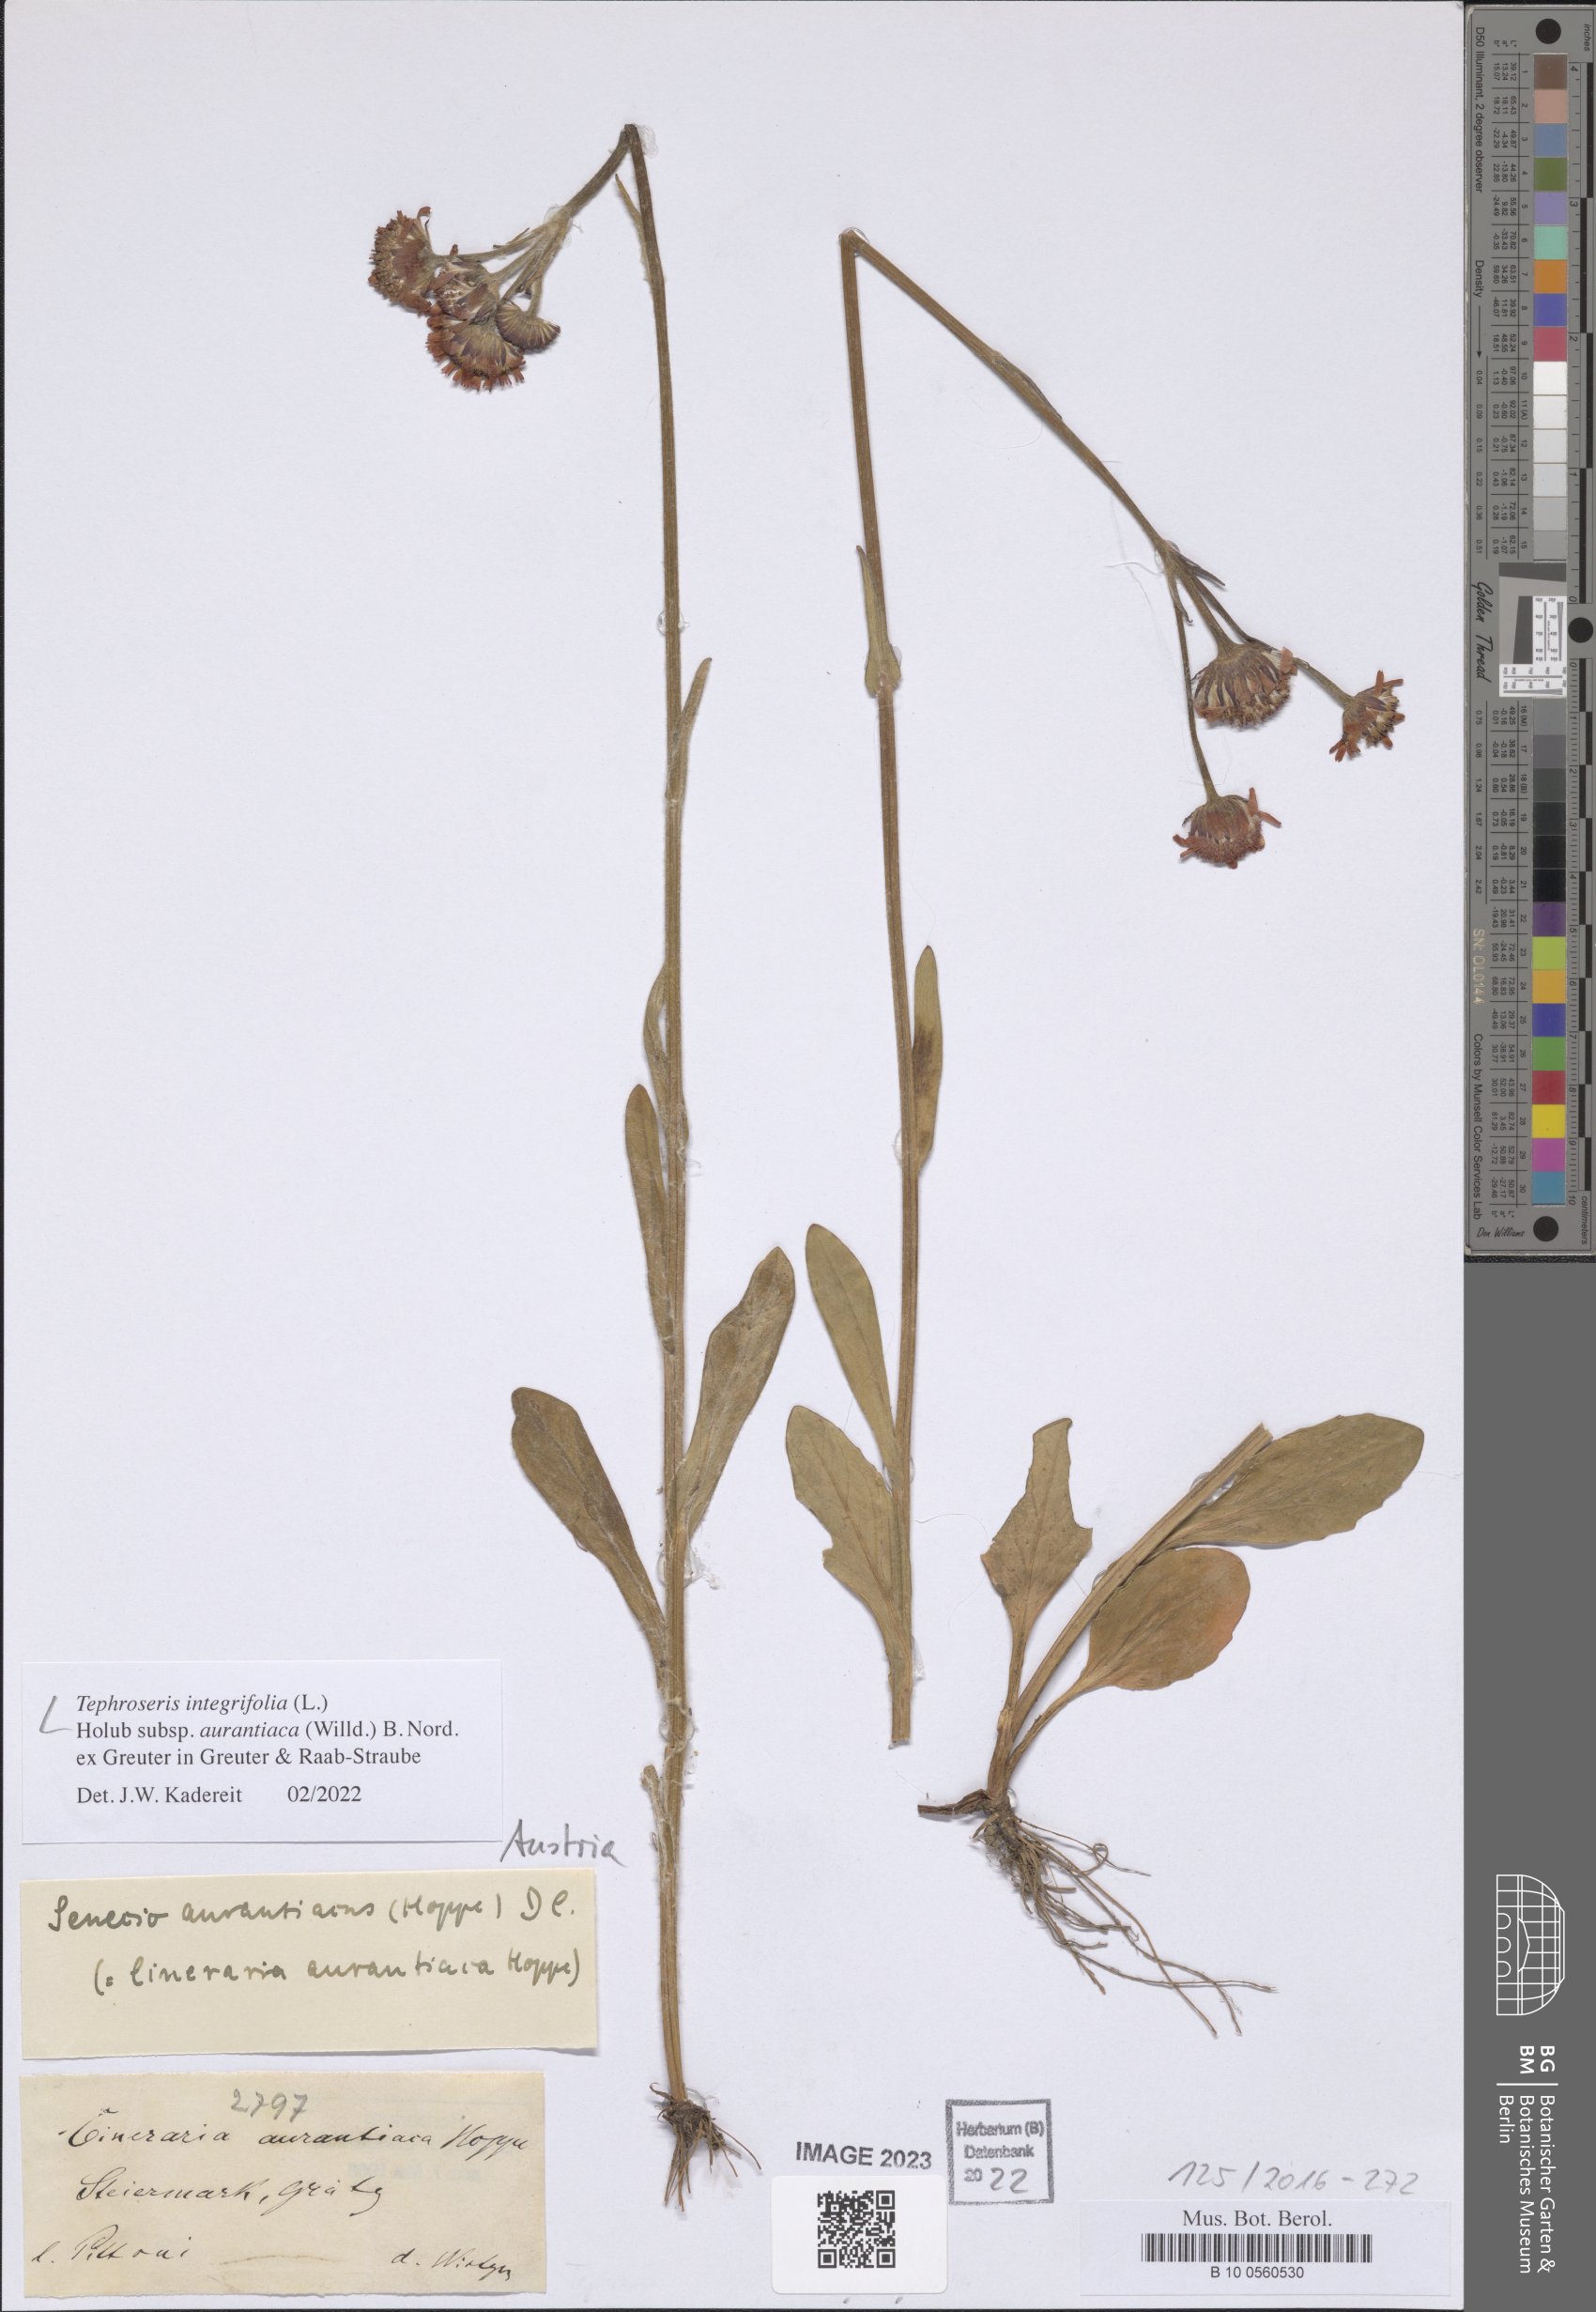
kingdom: Plantae
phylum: Tracheophyta
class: Magnoliopsida
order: Asterales
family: Asteraceae
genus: Tephroseris
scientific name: Tephroseris aurantiaca
